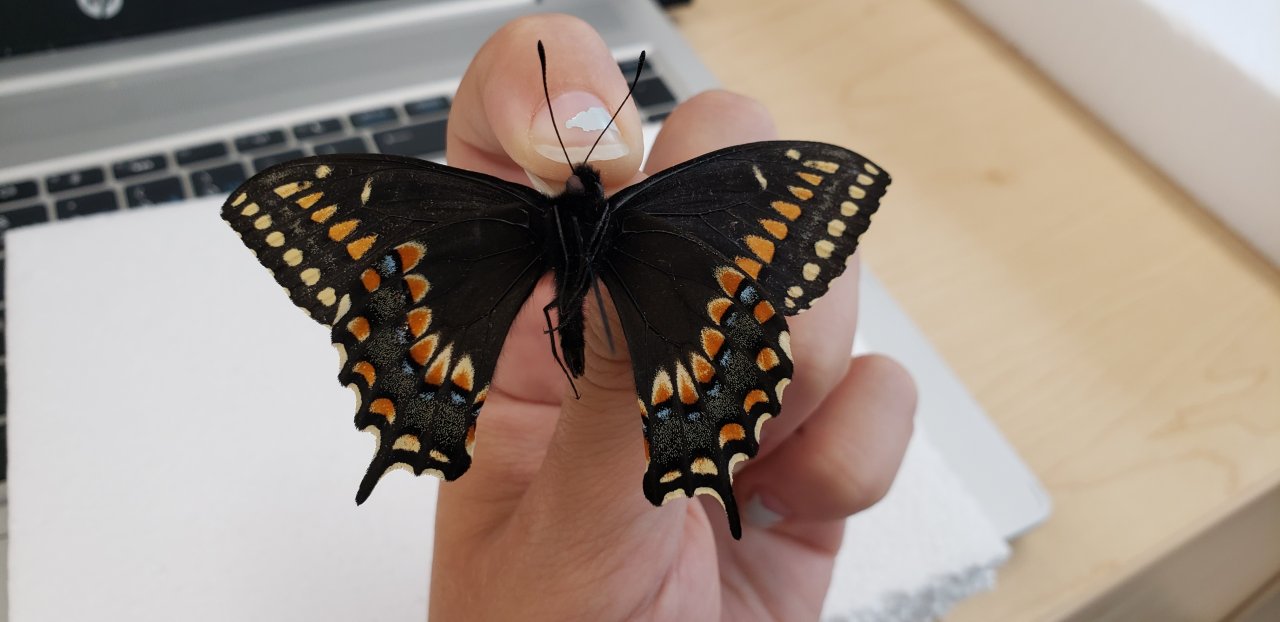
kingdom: Animalia
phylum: Arthropoda
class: Insecta
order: Lepidoptera
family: Papilionidae
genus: Papilio
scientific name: Papilio brevicauda
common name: Short-tailed Swallowtail
